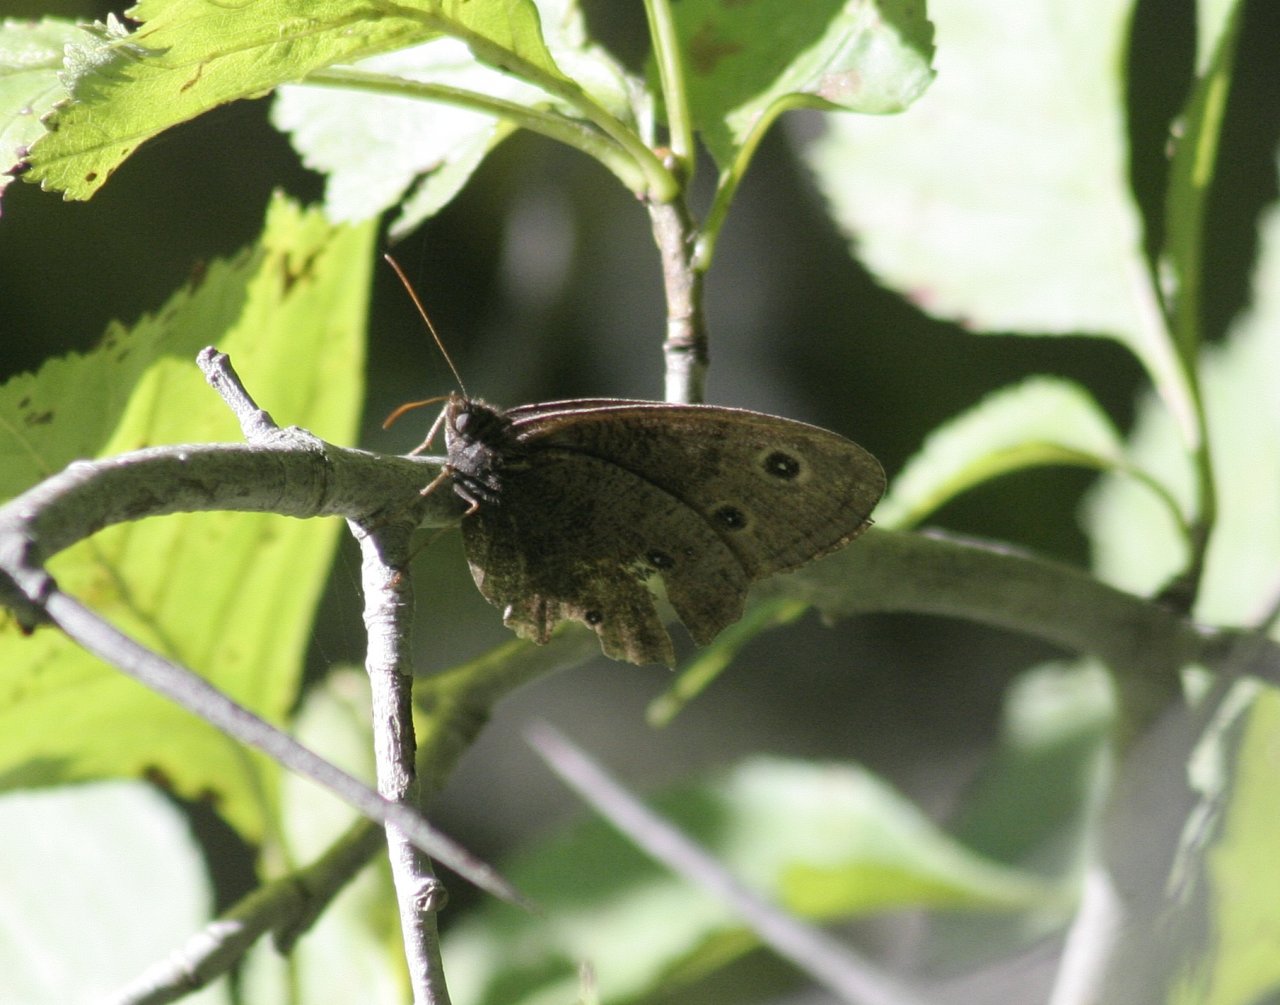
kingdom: Animalia
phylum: Arthropoda
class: Insecta
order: Lepidoptera
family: Nymphalidae
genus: Cercyonis
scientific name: Cercyonis pegala
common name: Common Wood-Nymph
